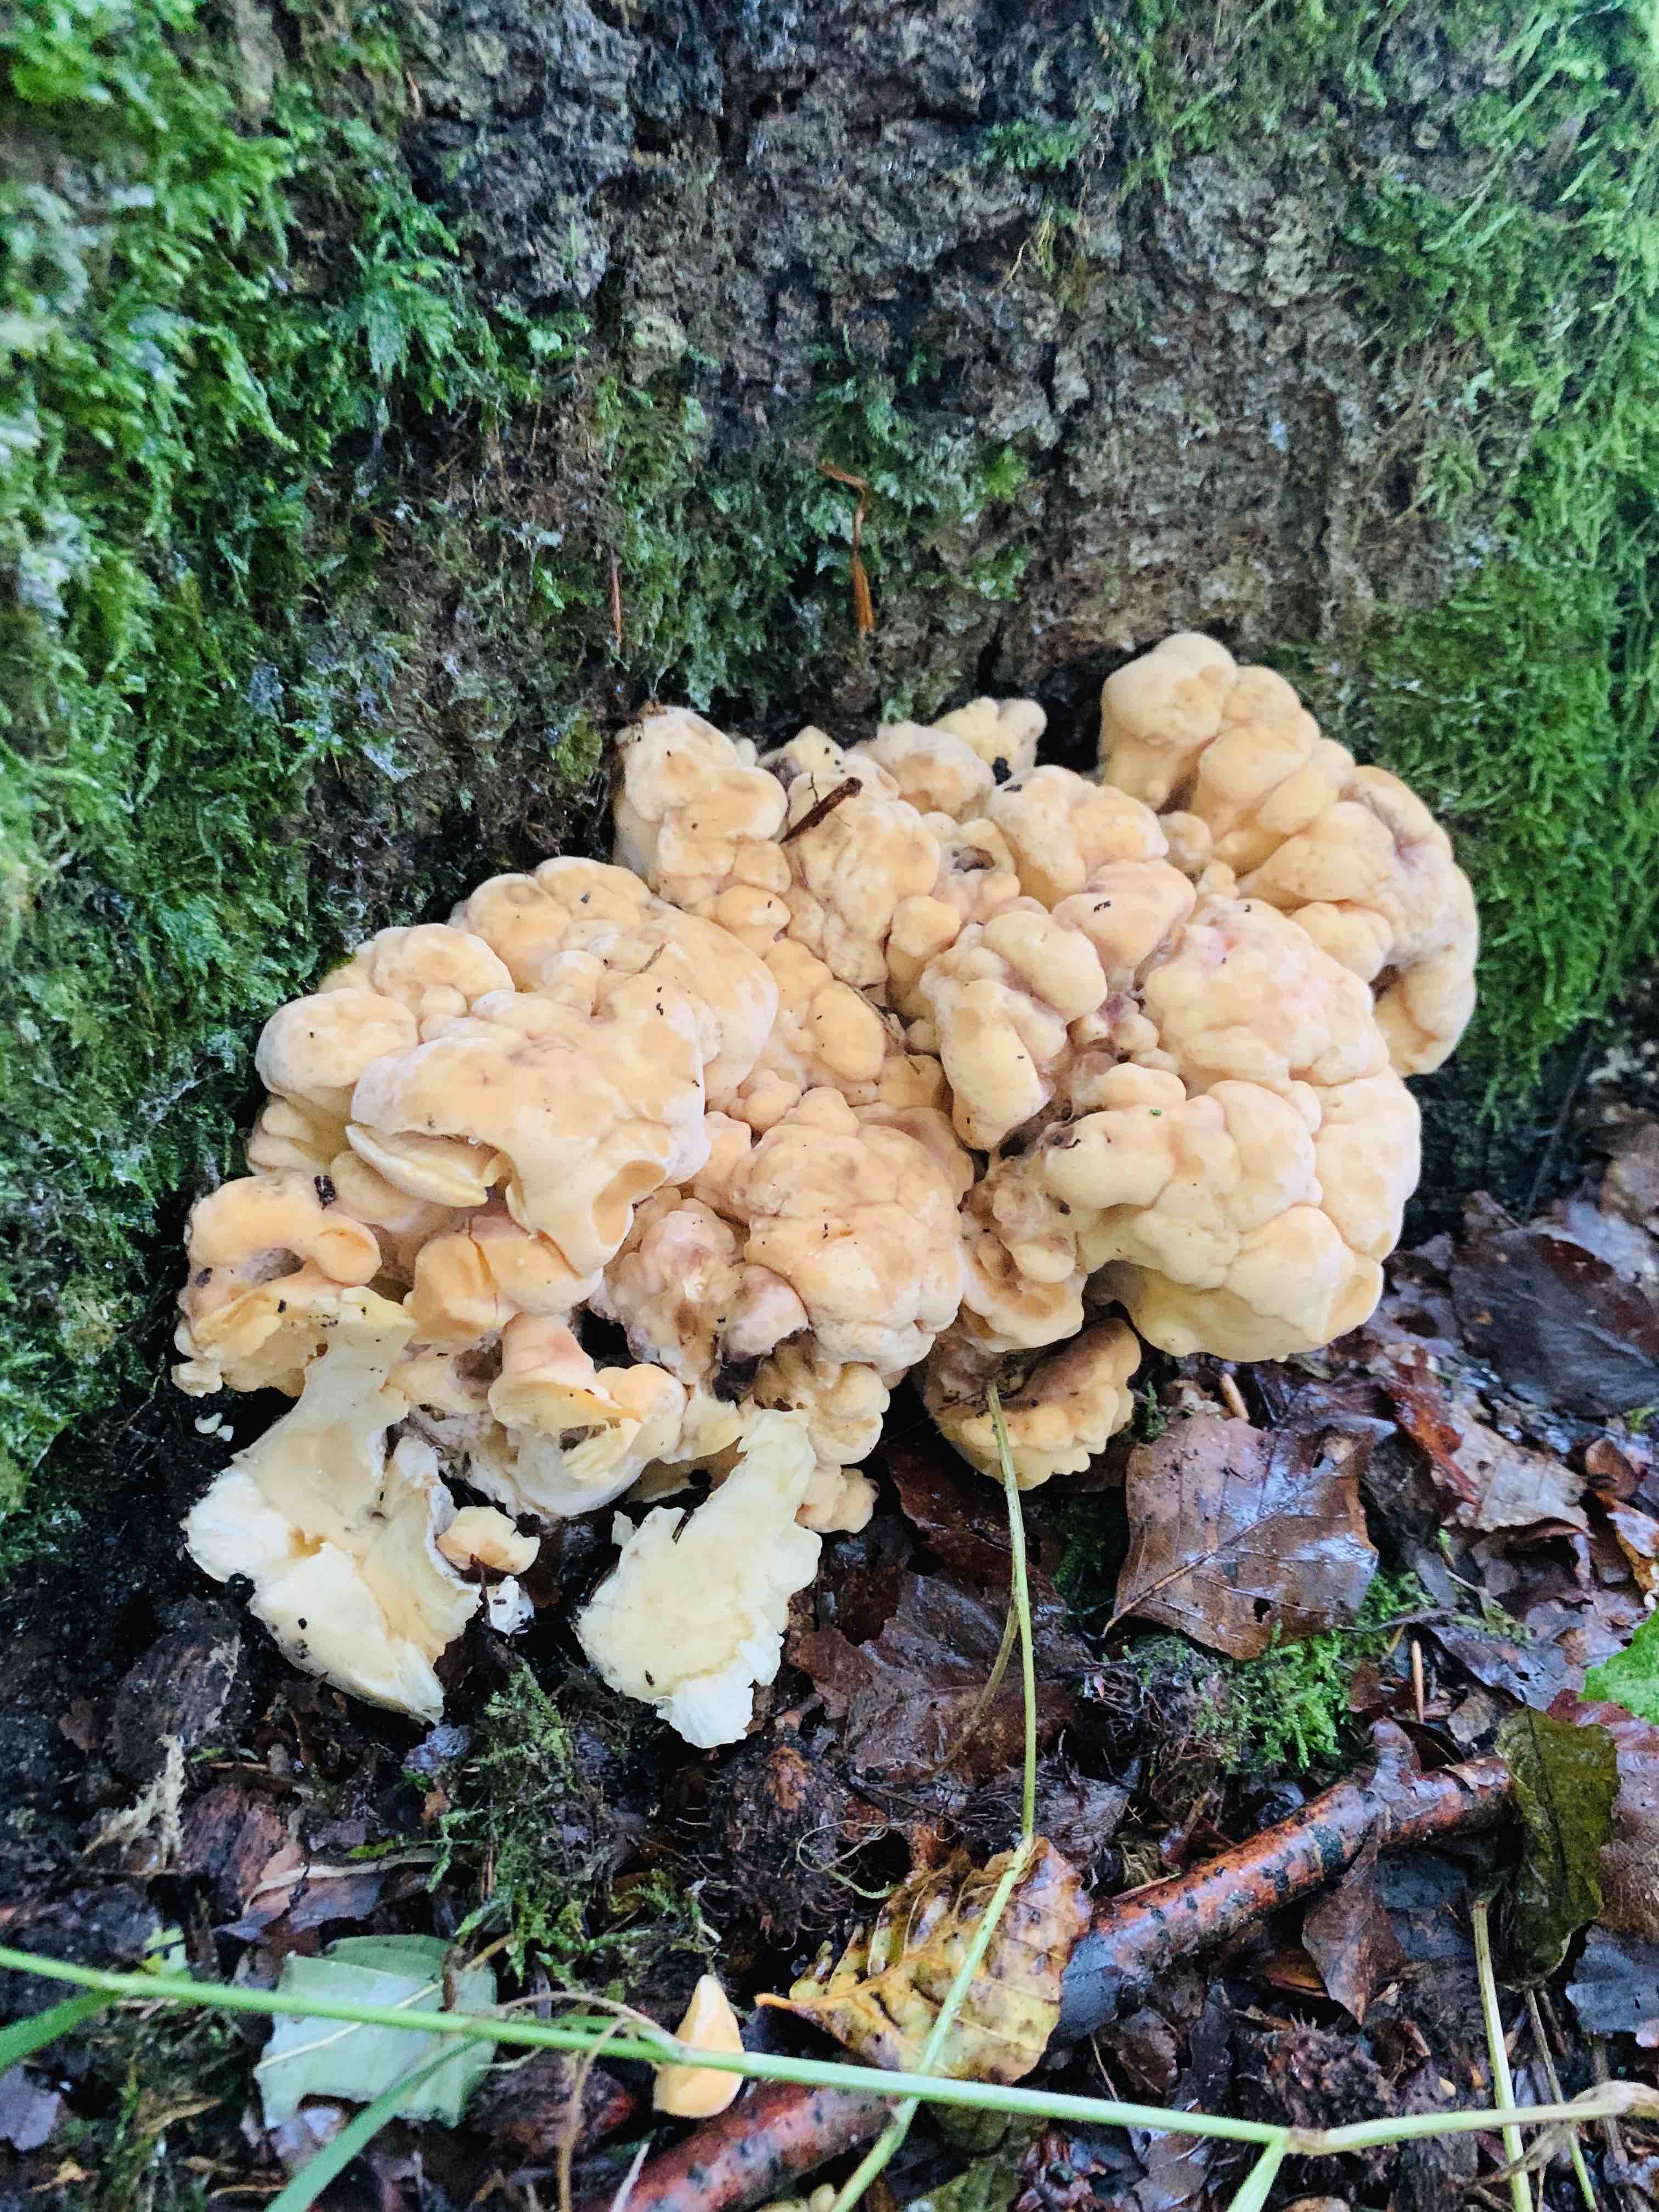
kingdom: Fungi
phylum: Basidiomycota
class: Agaricomycetes
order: Polyporales
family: Laetiporaceae
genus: Laetiporus
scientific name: Laetiporus sulphureus
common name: svovlporesvamp
